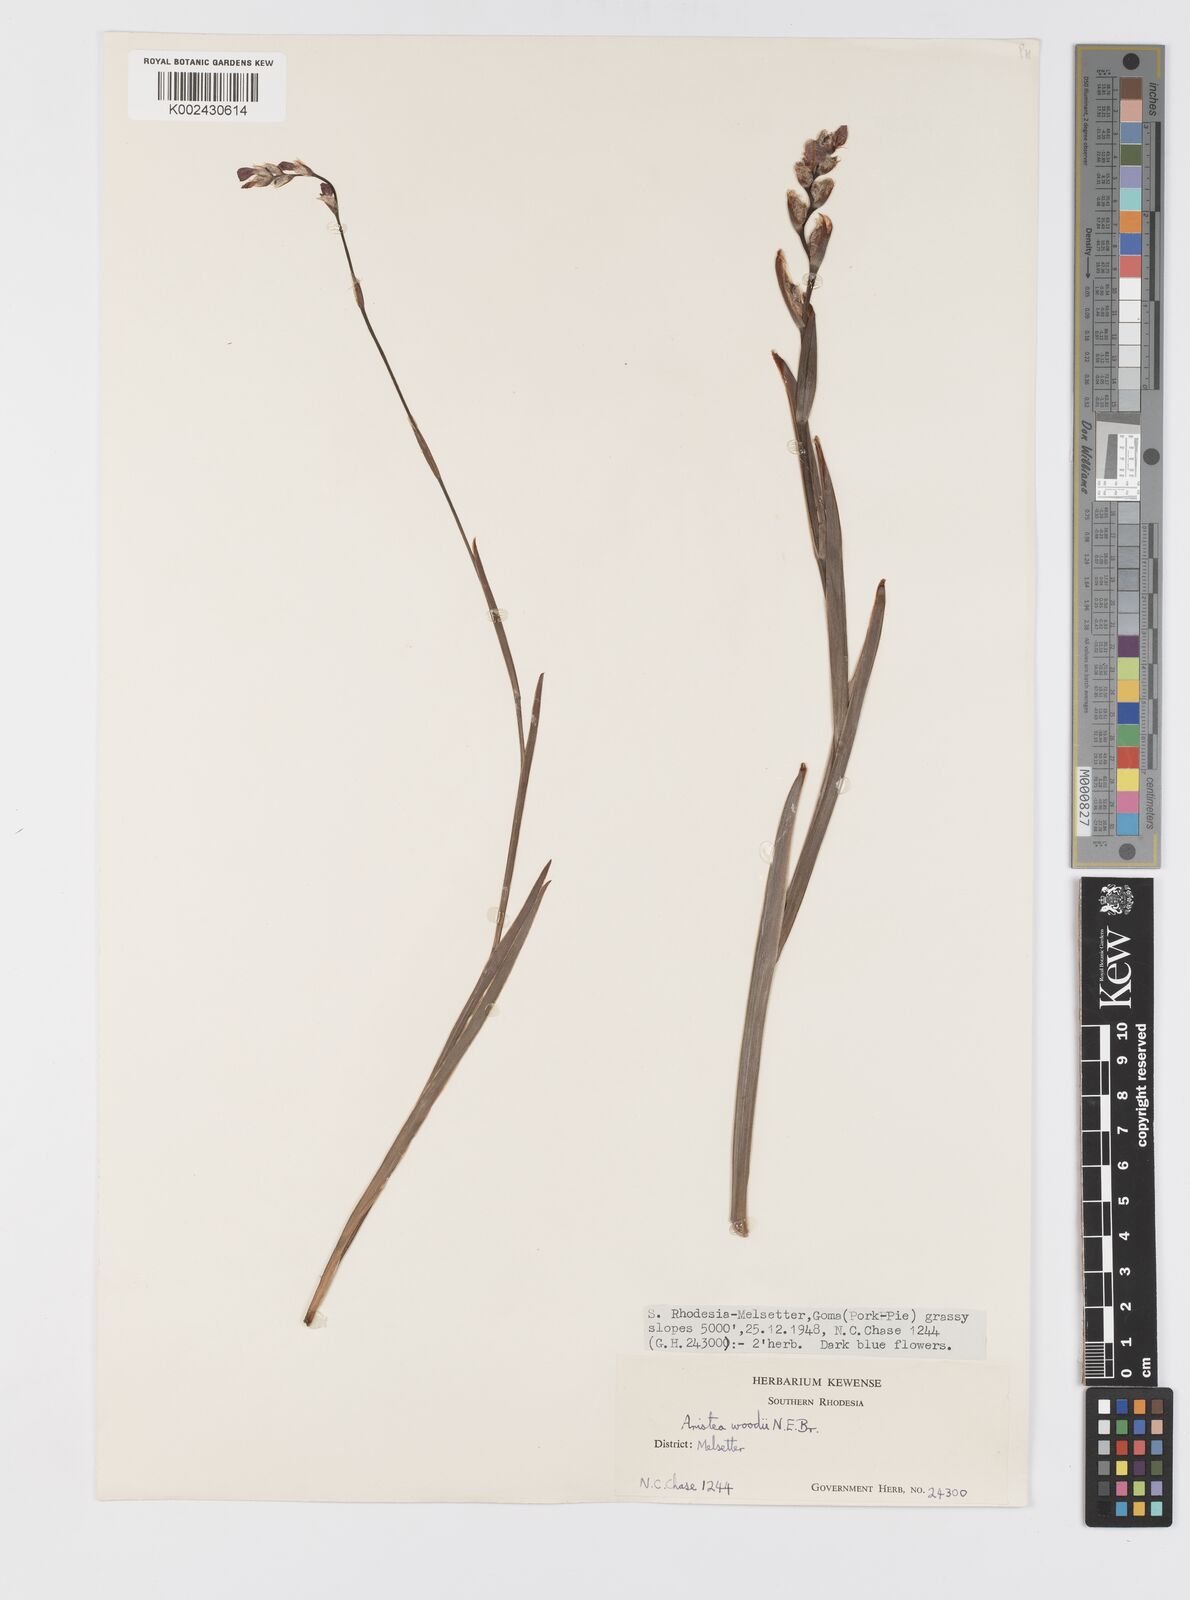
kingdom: Plantae
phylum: Tracheophyta
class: Liliopsida
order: Asparagales
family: Iridaceae
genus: Aristea
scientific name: Aristea torulosa
